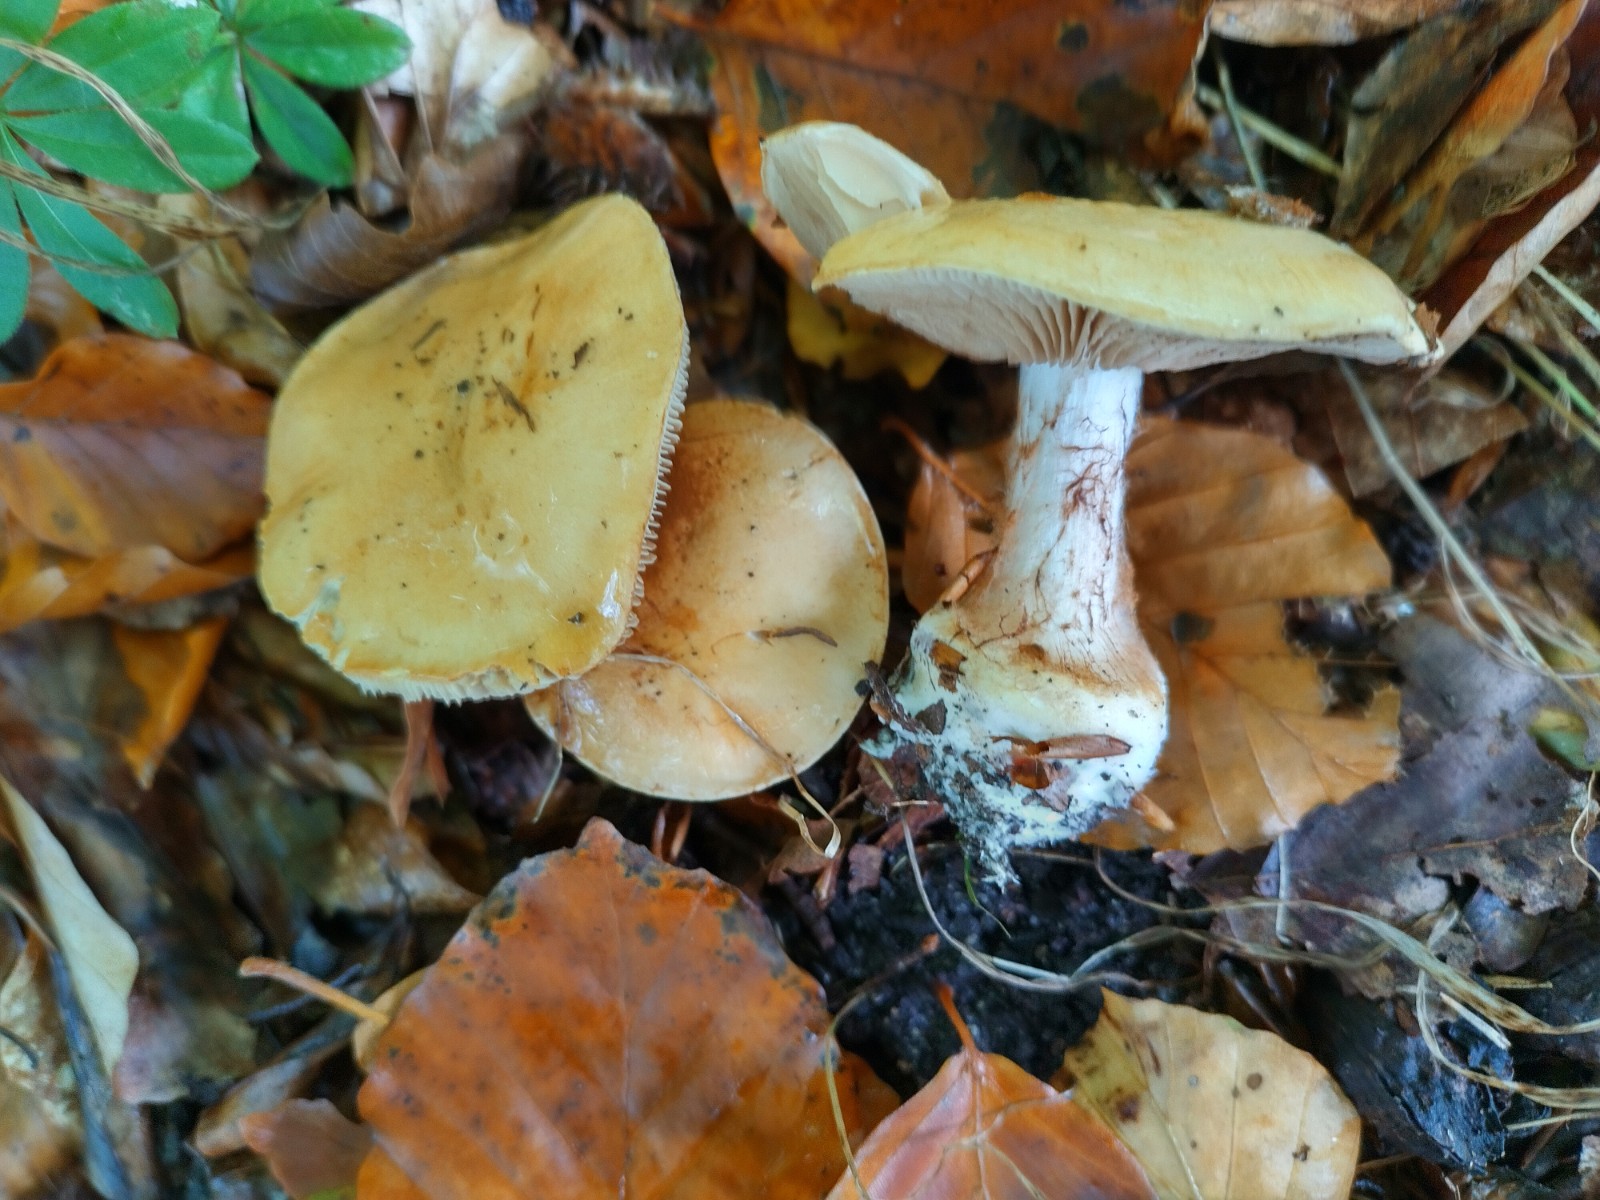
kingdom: Fungi
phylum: Basidiomycota
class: Agaricomycetes
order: Agaricales
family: Cortinariaceae
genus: Phlegmacium
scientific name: Phlegmacium rhizophorum
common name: finkornet slørhat
